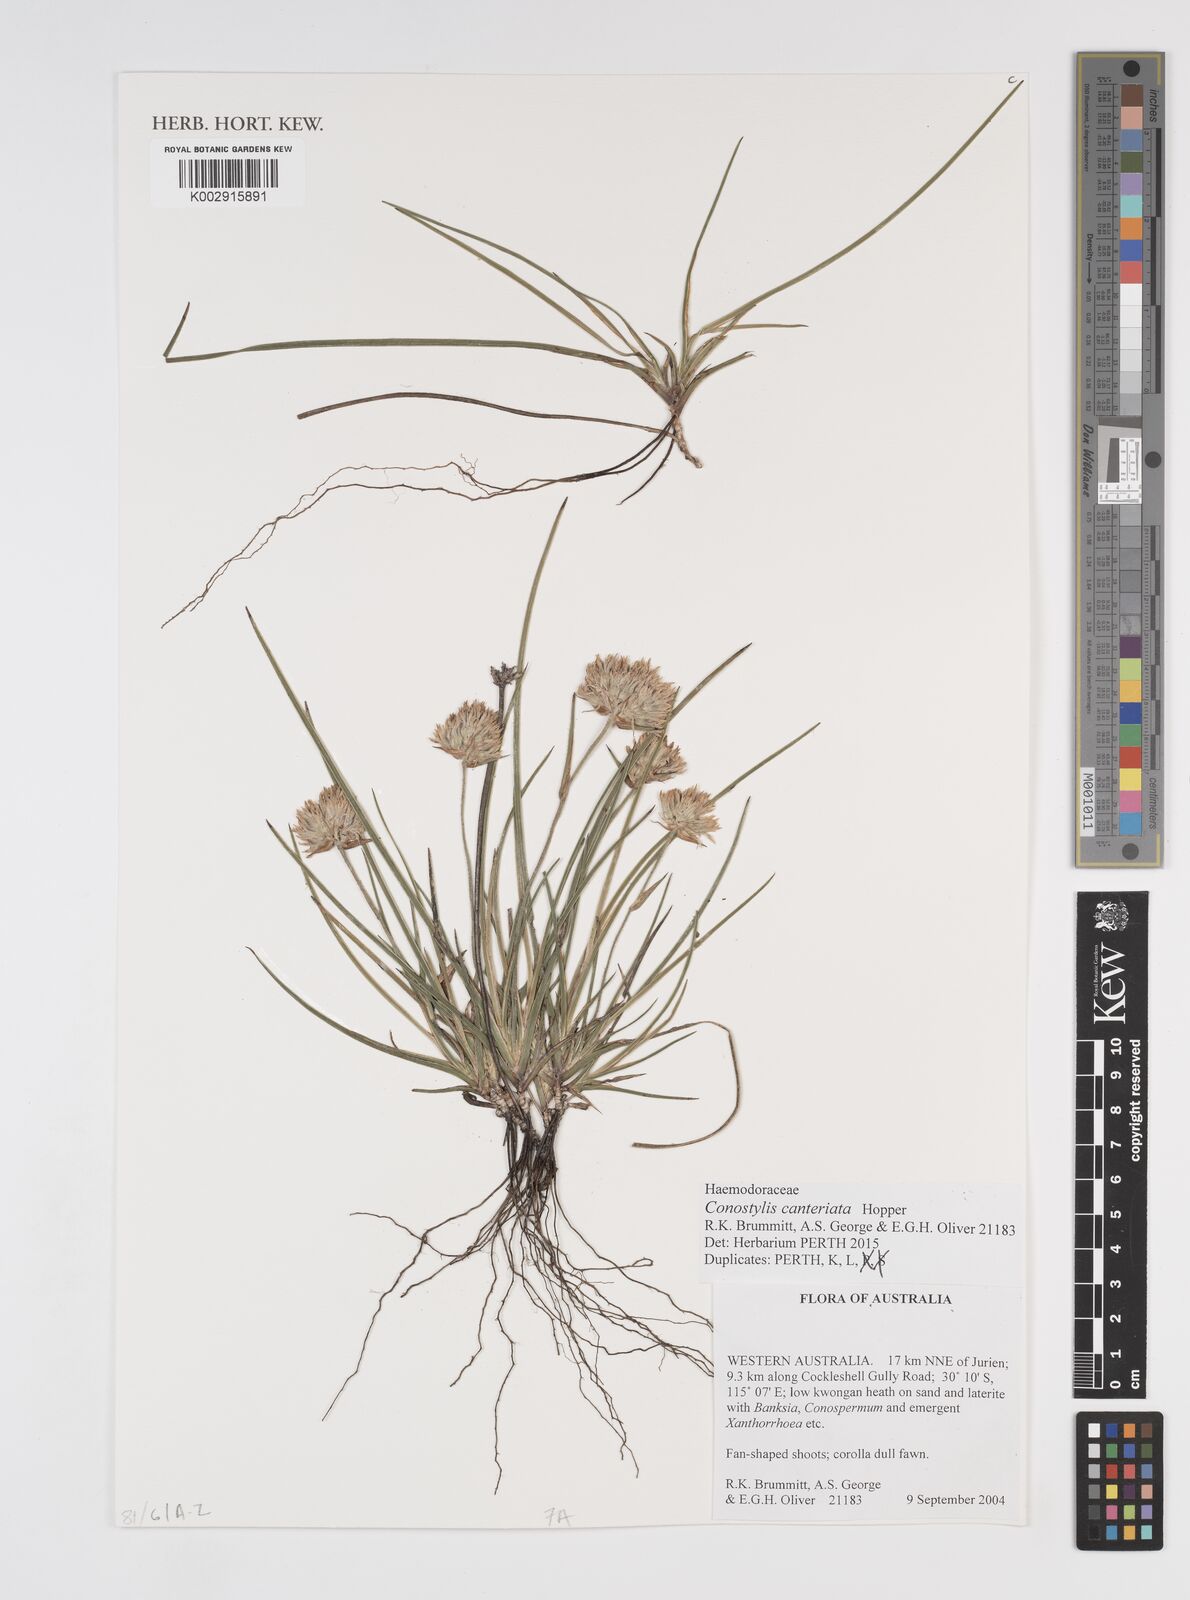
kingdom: Plantae
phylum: Tracheophyta
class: Liliopsida
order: Commelinales
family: Haemodoraceae
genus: Conostylis
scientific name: Conostylis canteriata
